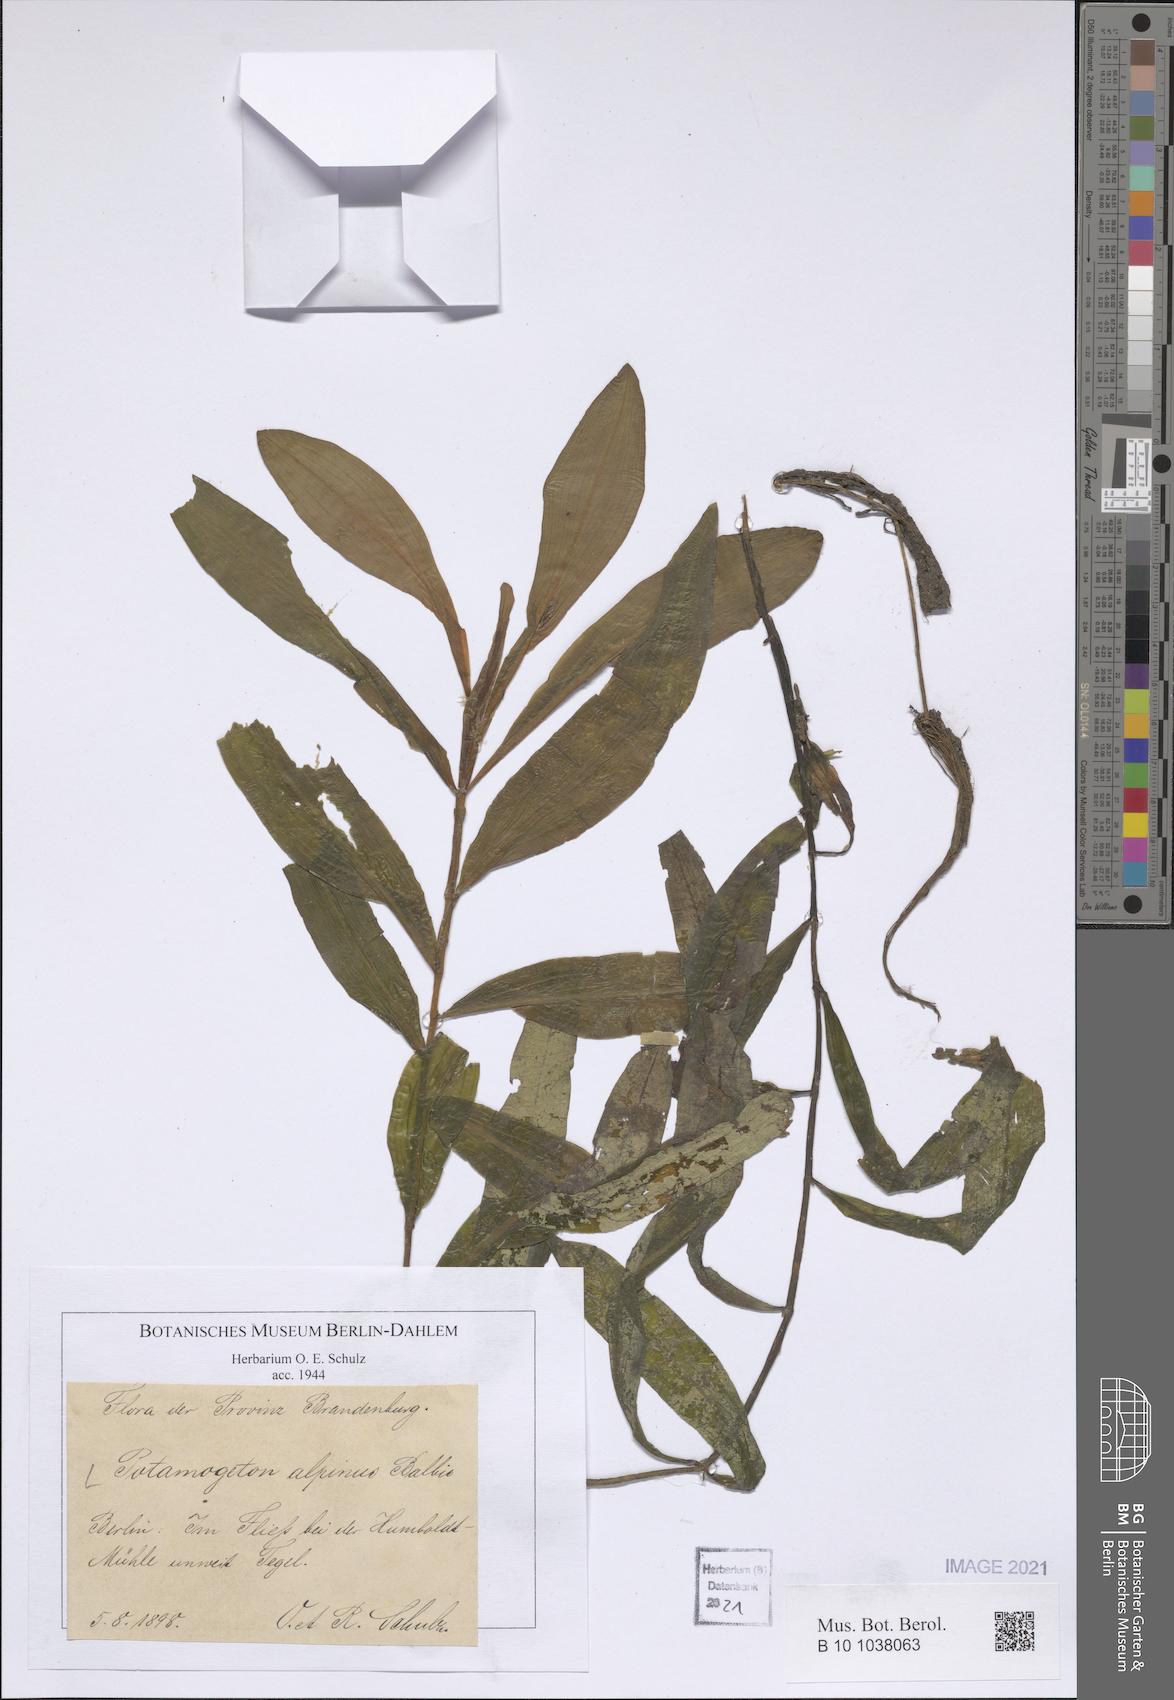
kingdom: Plantae
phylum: Tracheophyta
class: Liliopsida
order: Alismatales
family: Potamogetonaceae
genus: Potamogeton
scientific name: Potamogeton alpinus
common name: Red pondweed
